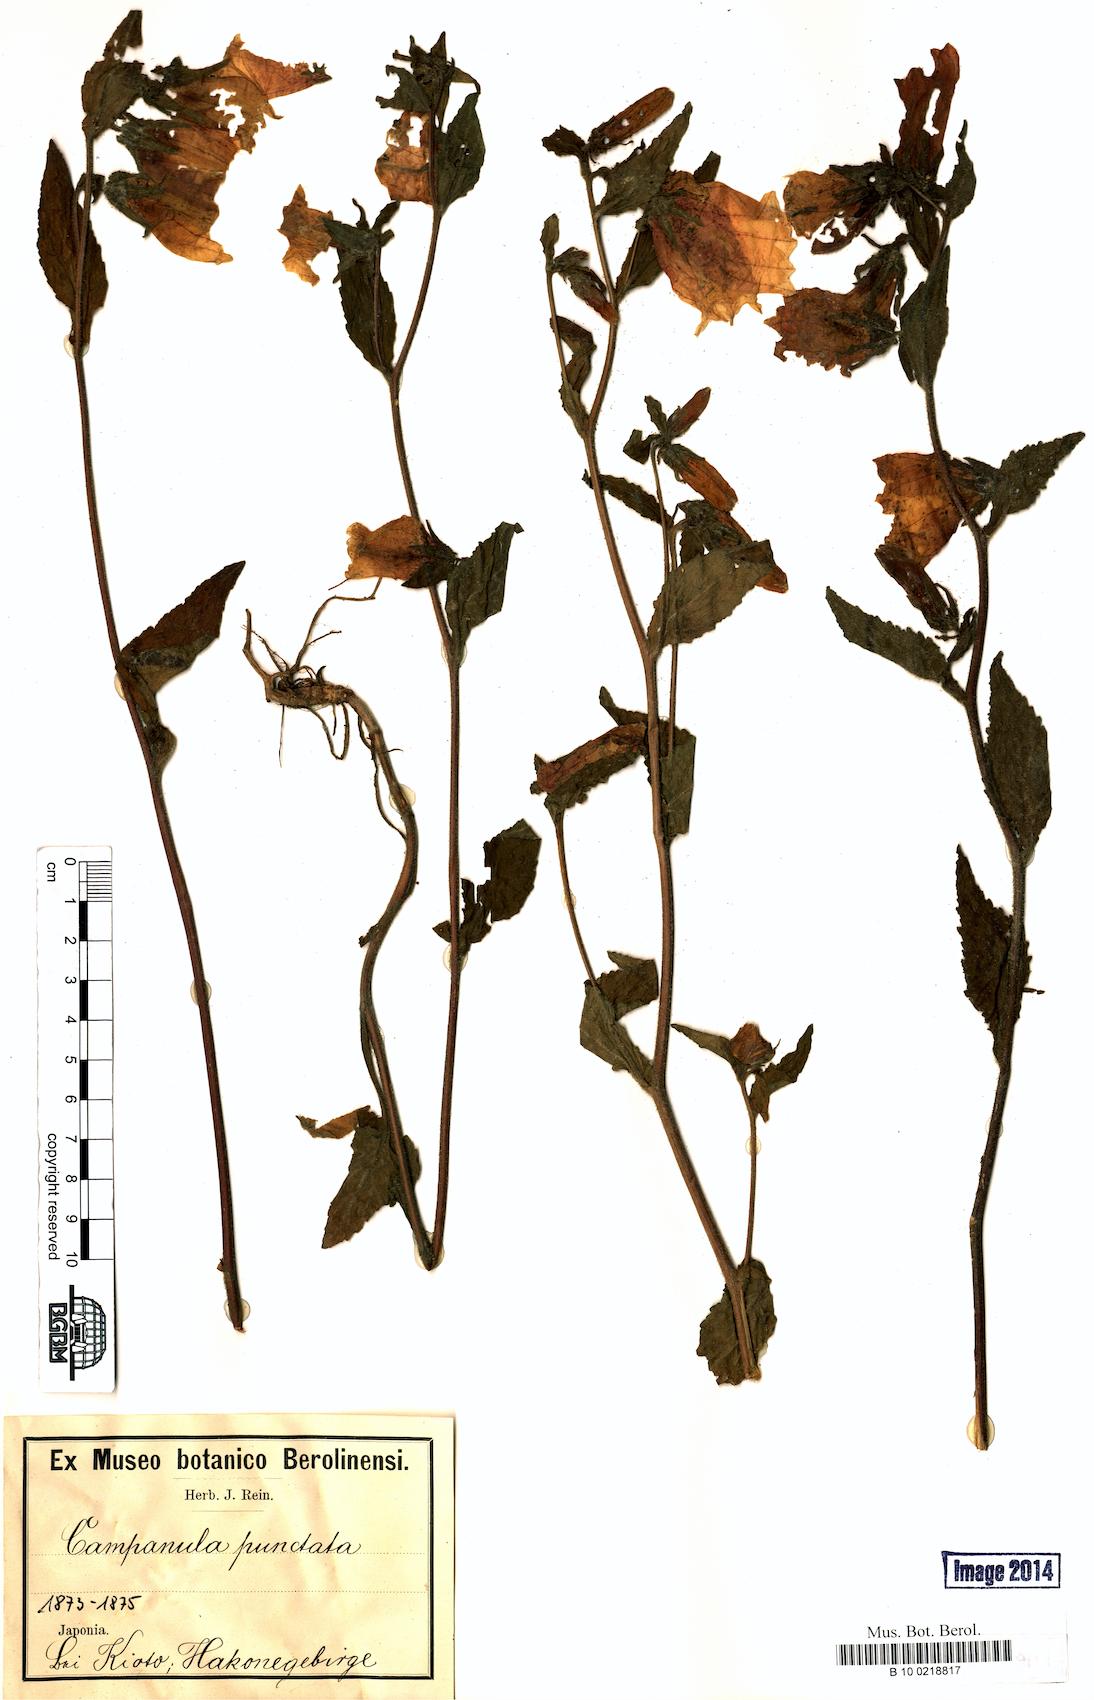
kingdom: Plantae
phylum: Tracheophyta
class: Magnoliopsida
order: Asterales
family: Campanulaceae
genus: Campanula
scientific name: Campanula punctata
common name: Spotted bellflower
